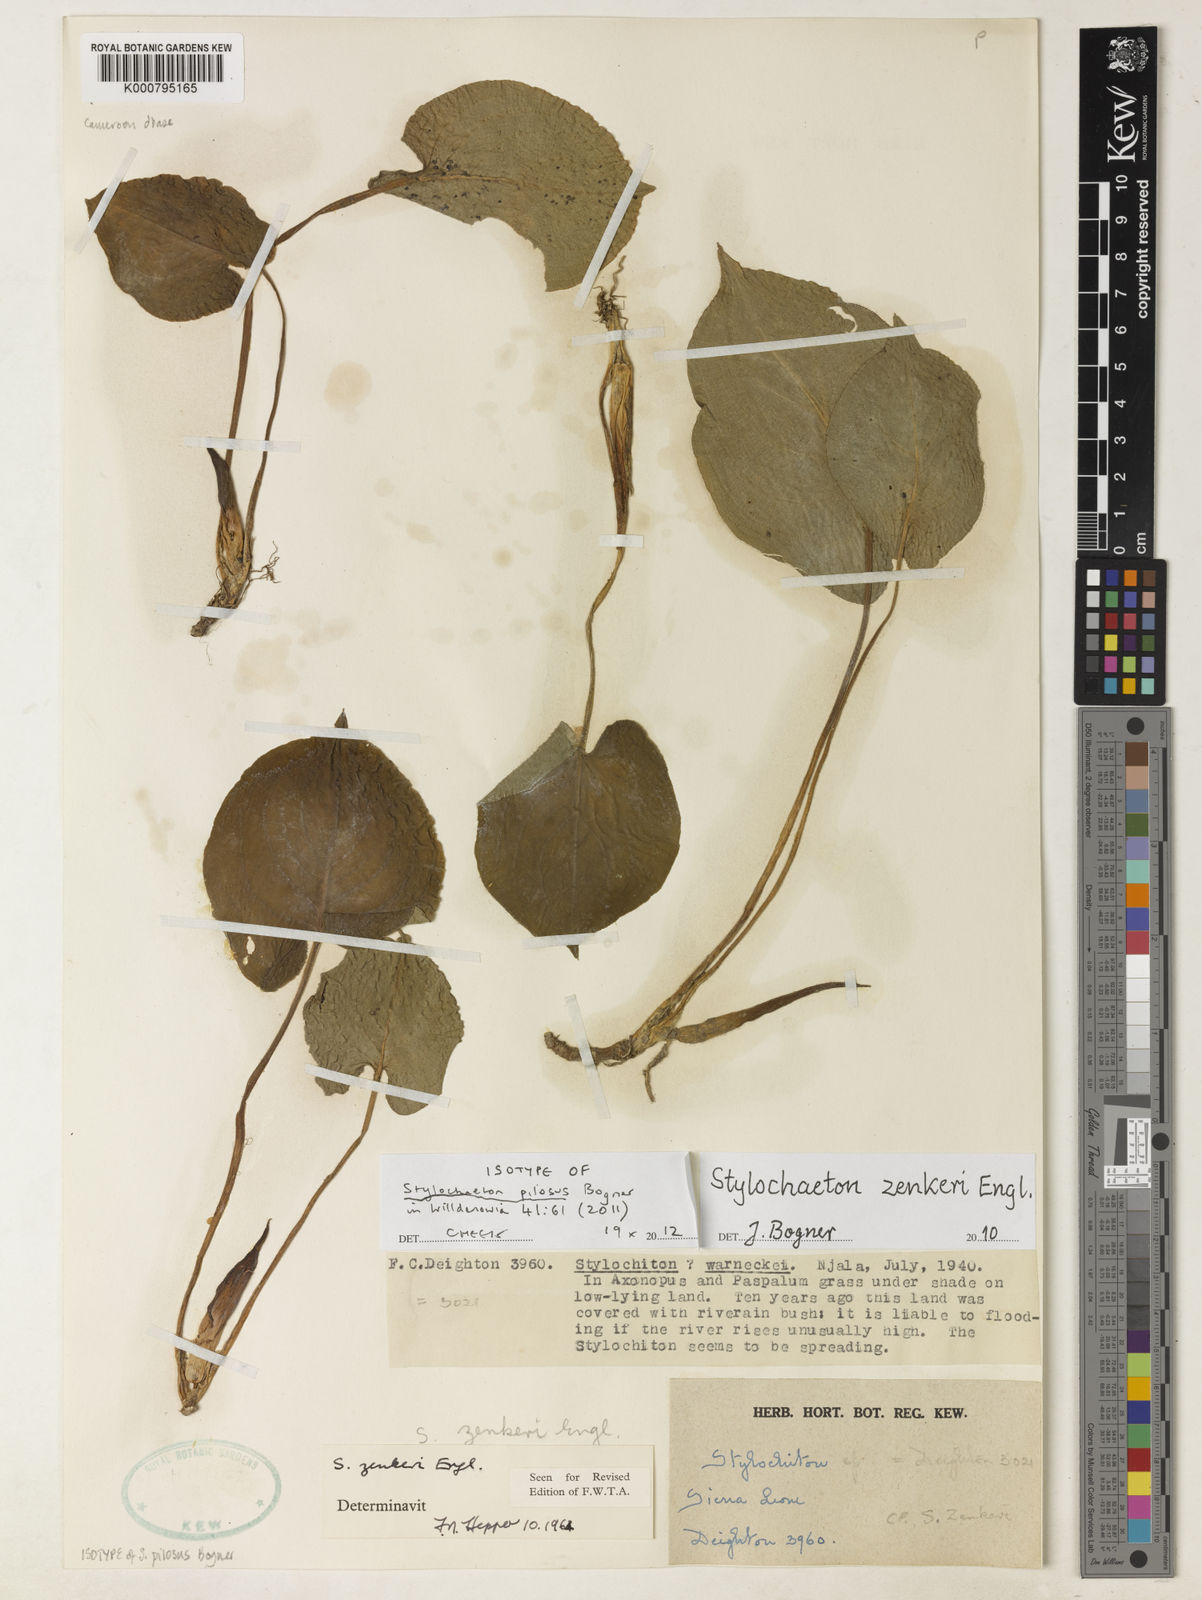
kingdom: Plantae
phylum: Tracheophyta
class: Liliopsida
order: Alismatales
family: Araceae
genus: Stylochaeton
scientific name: Stylochaeton pilosum
